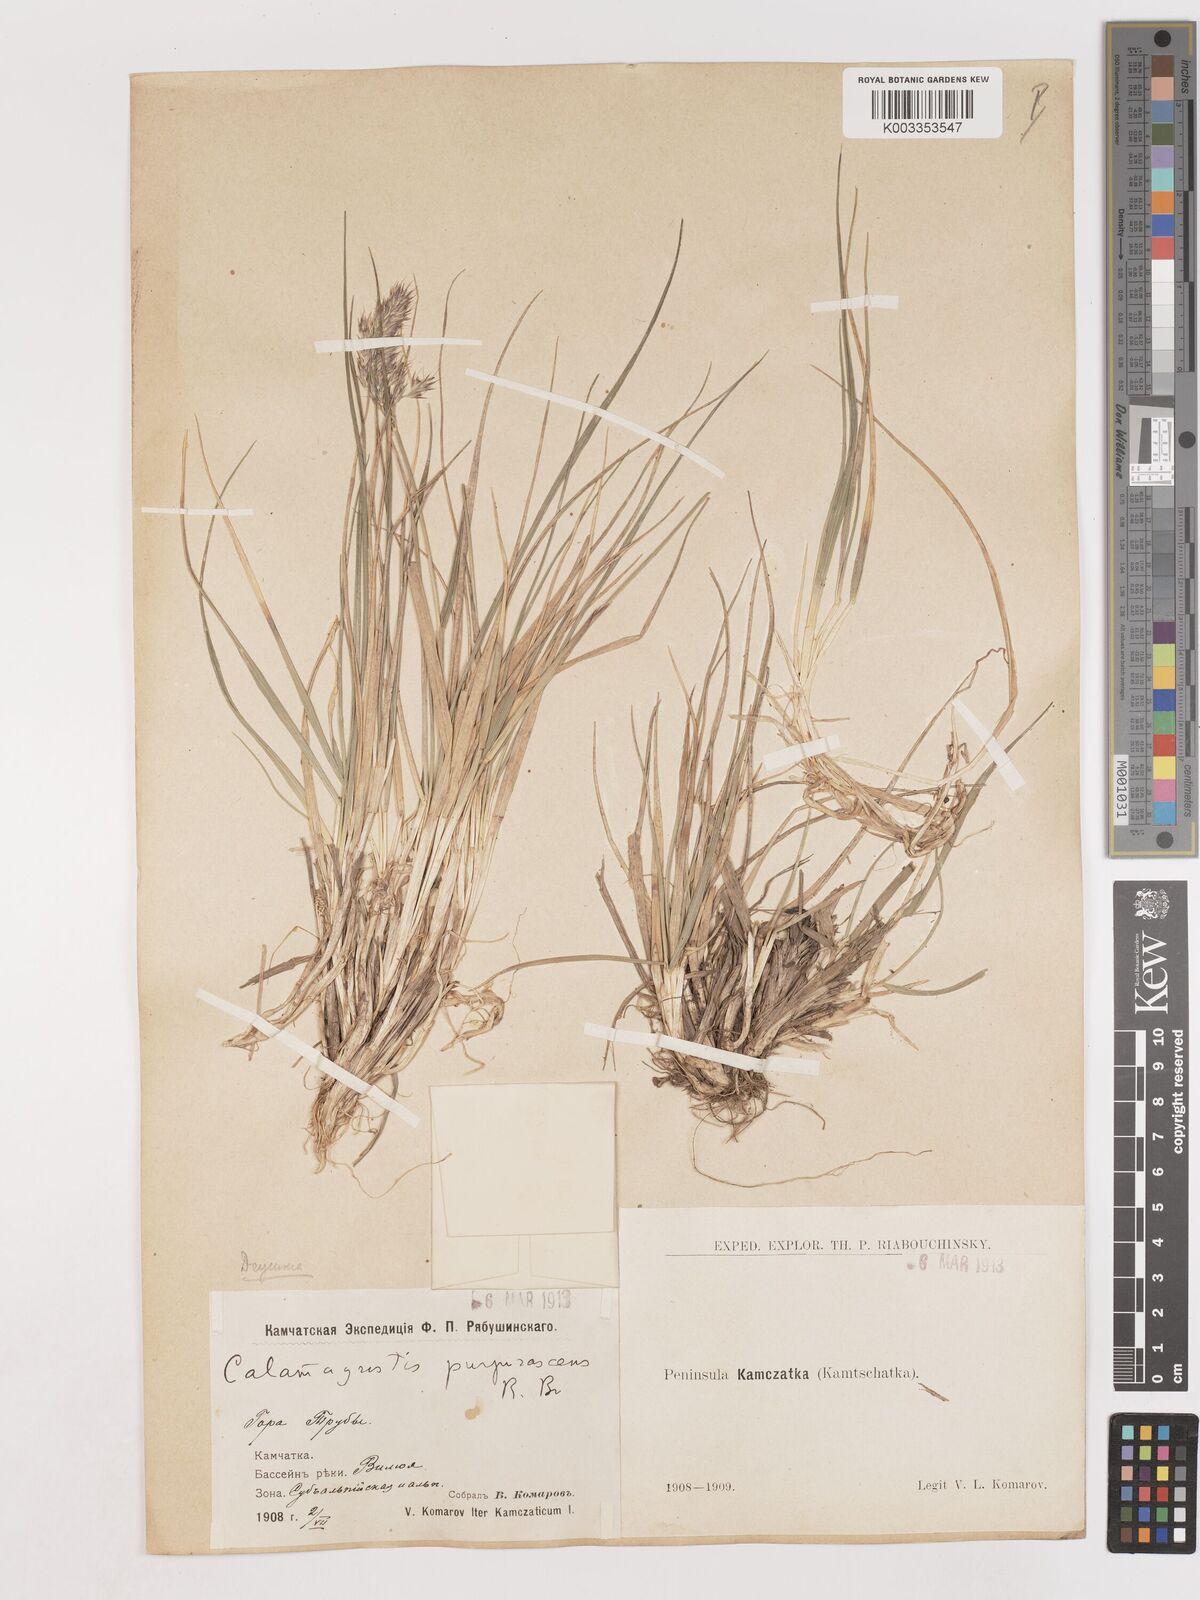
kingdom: Plantae
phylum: Tracheophyta
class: Liliopsida
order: Poales
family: Poaceae
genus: Calamagrostis
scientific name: Calamagrostis purpurascens
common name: Purple reedgrass
